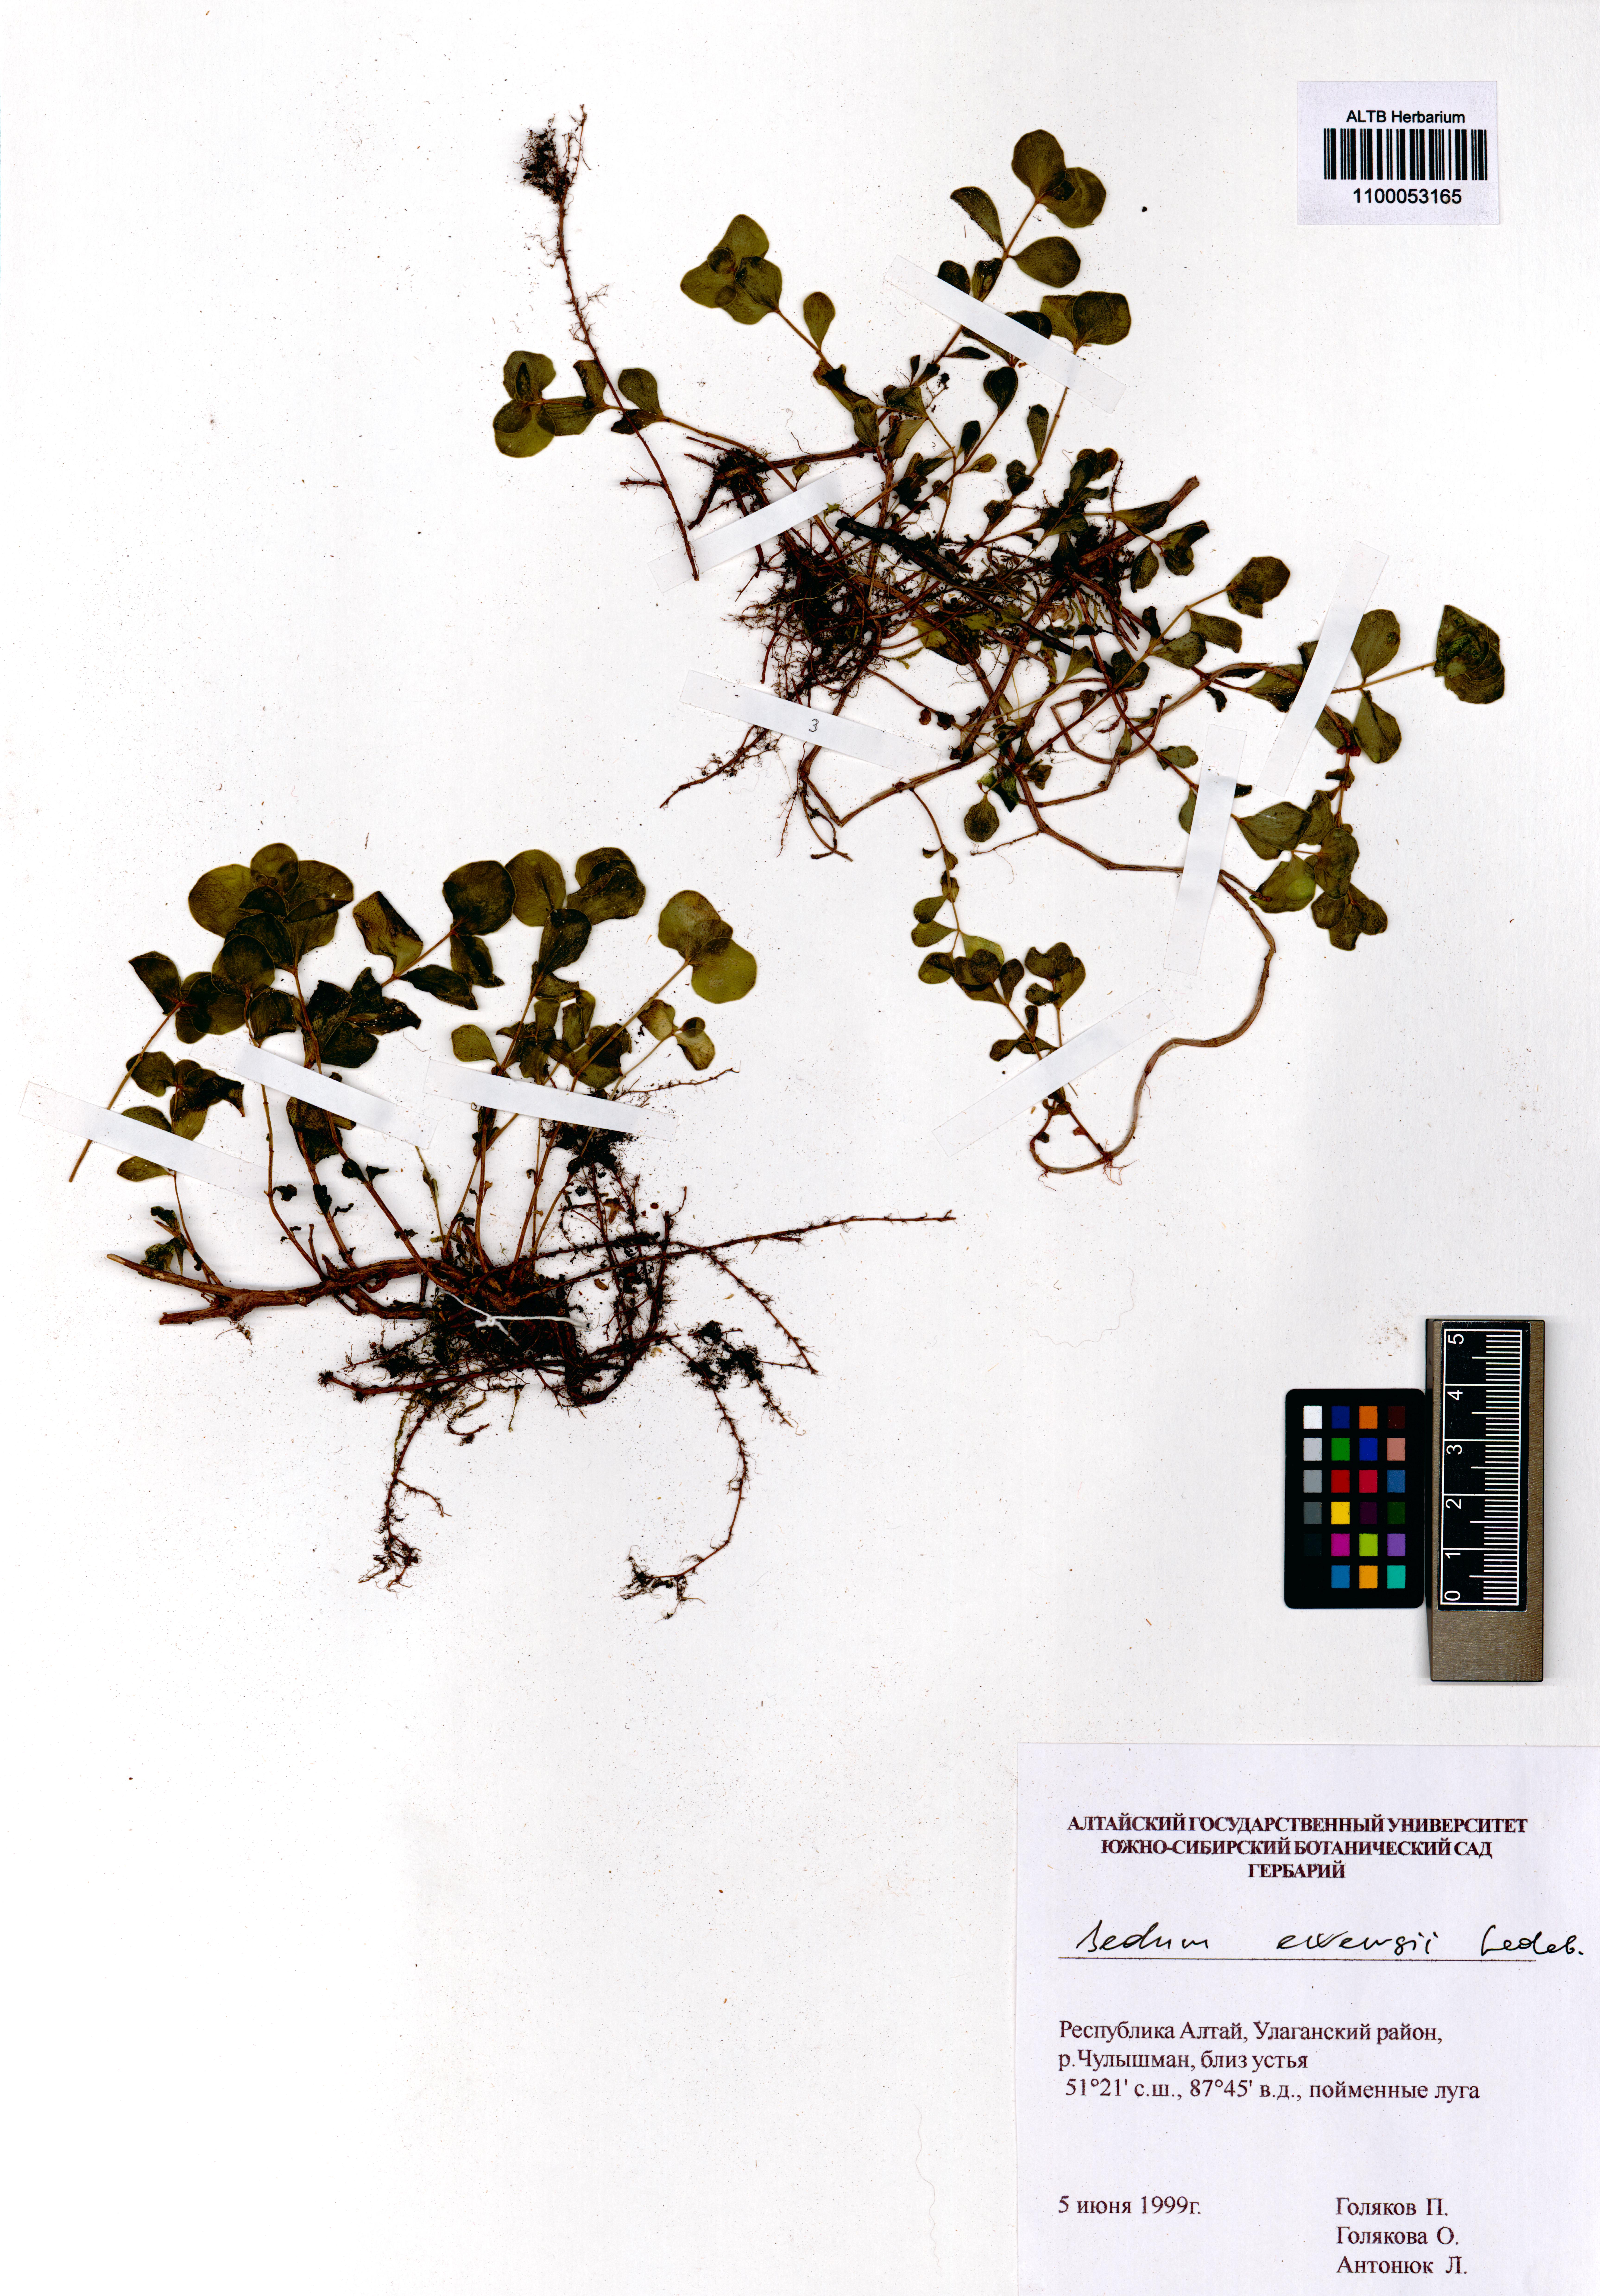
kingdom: Plantae
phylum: Tracheophyta
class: Magnoliopsida
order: Saxifragales
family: Crassulaceae
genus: Hylotelephium
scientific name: Hylotelephium ewersii
